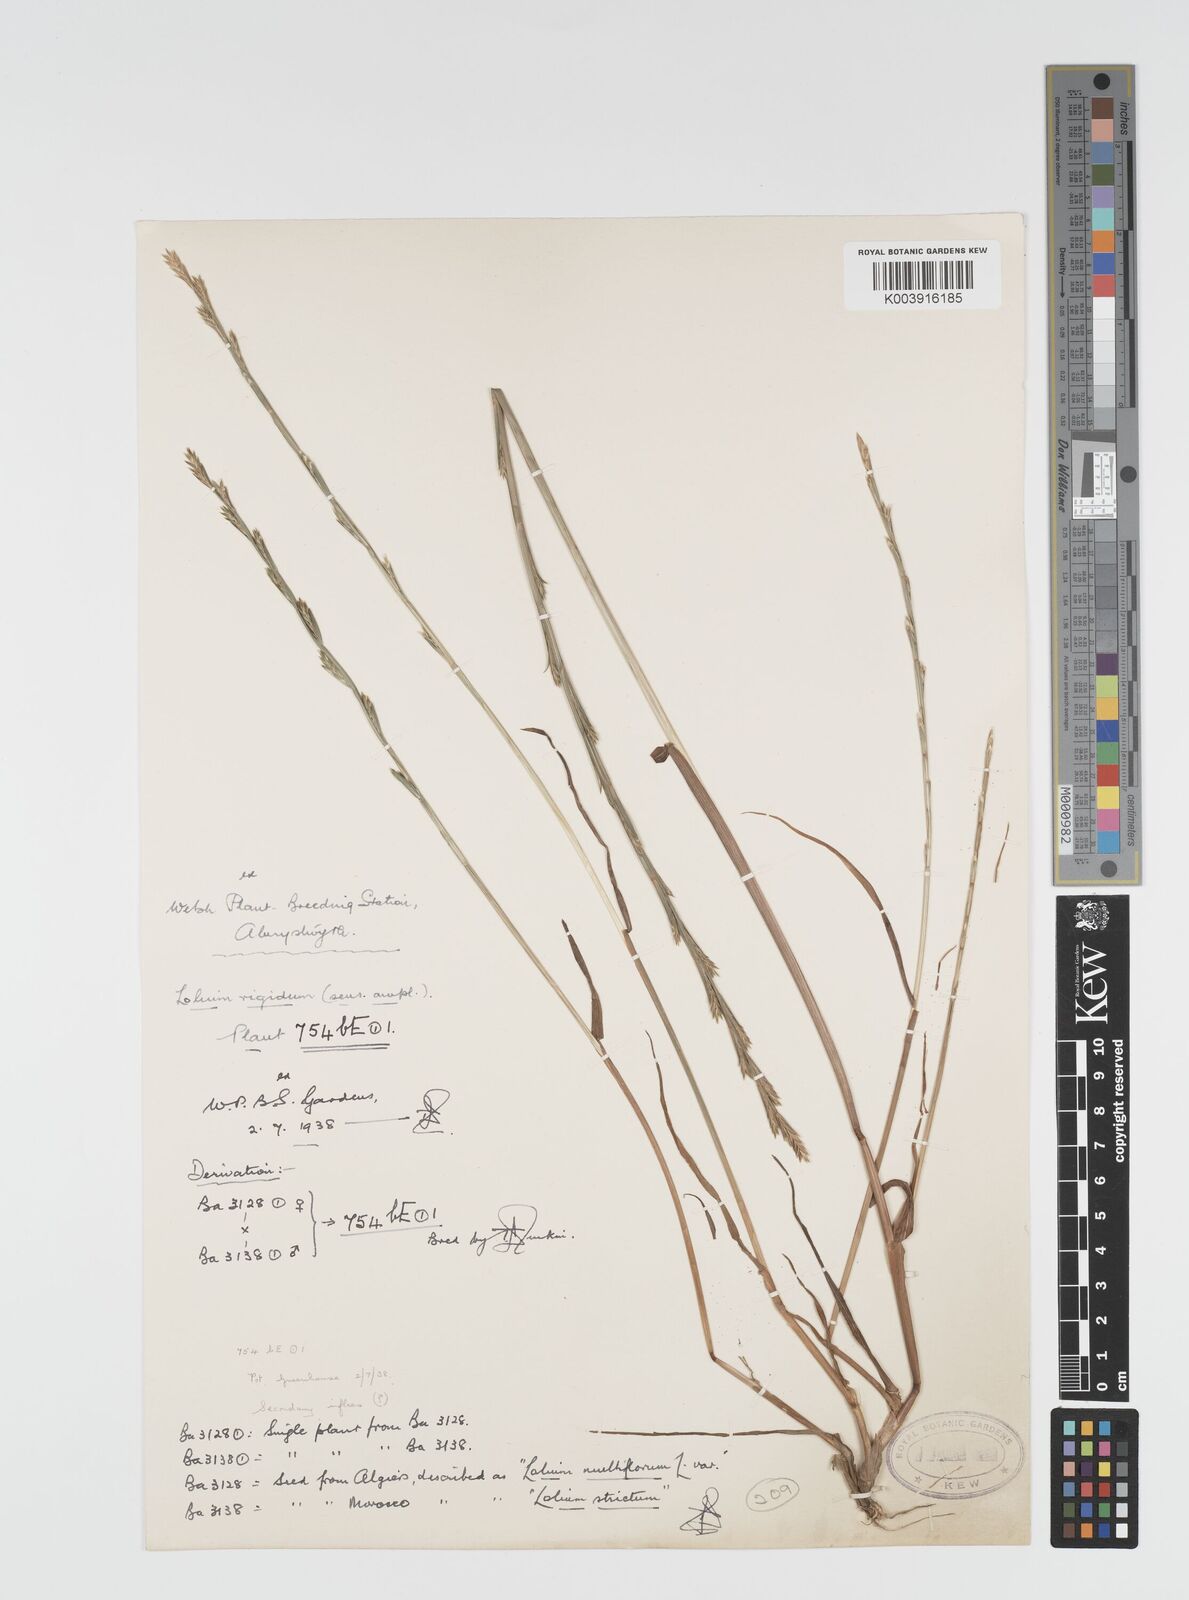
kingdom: Plantae
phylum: Tracheophyta
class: Liliopsida
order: Poales
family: Poaceae
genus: Lolium
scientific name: Lolium rigidum
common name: Wimmera ryegrass
